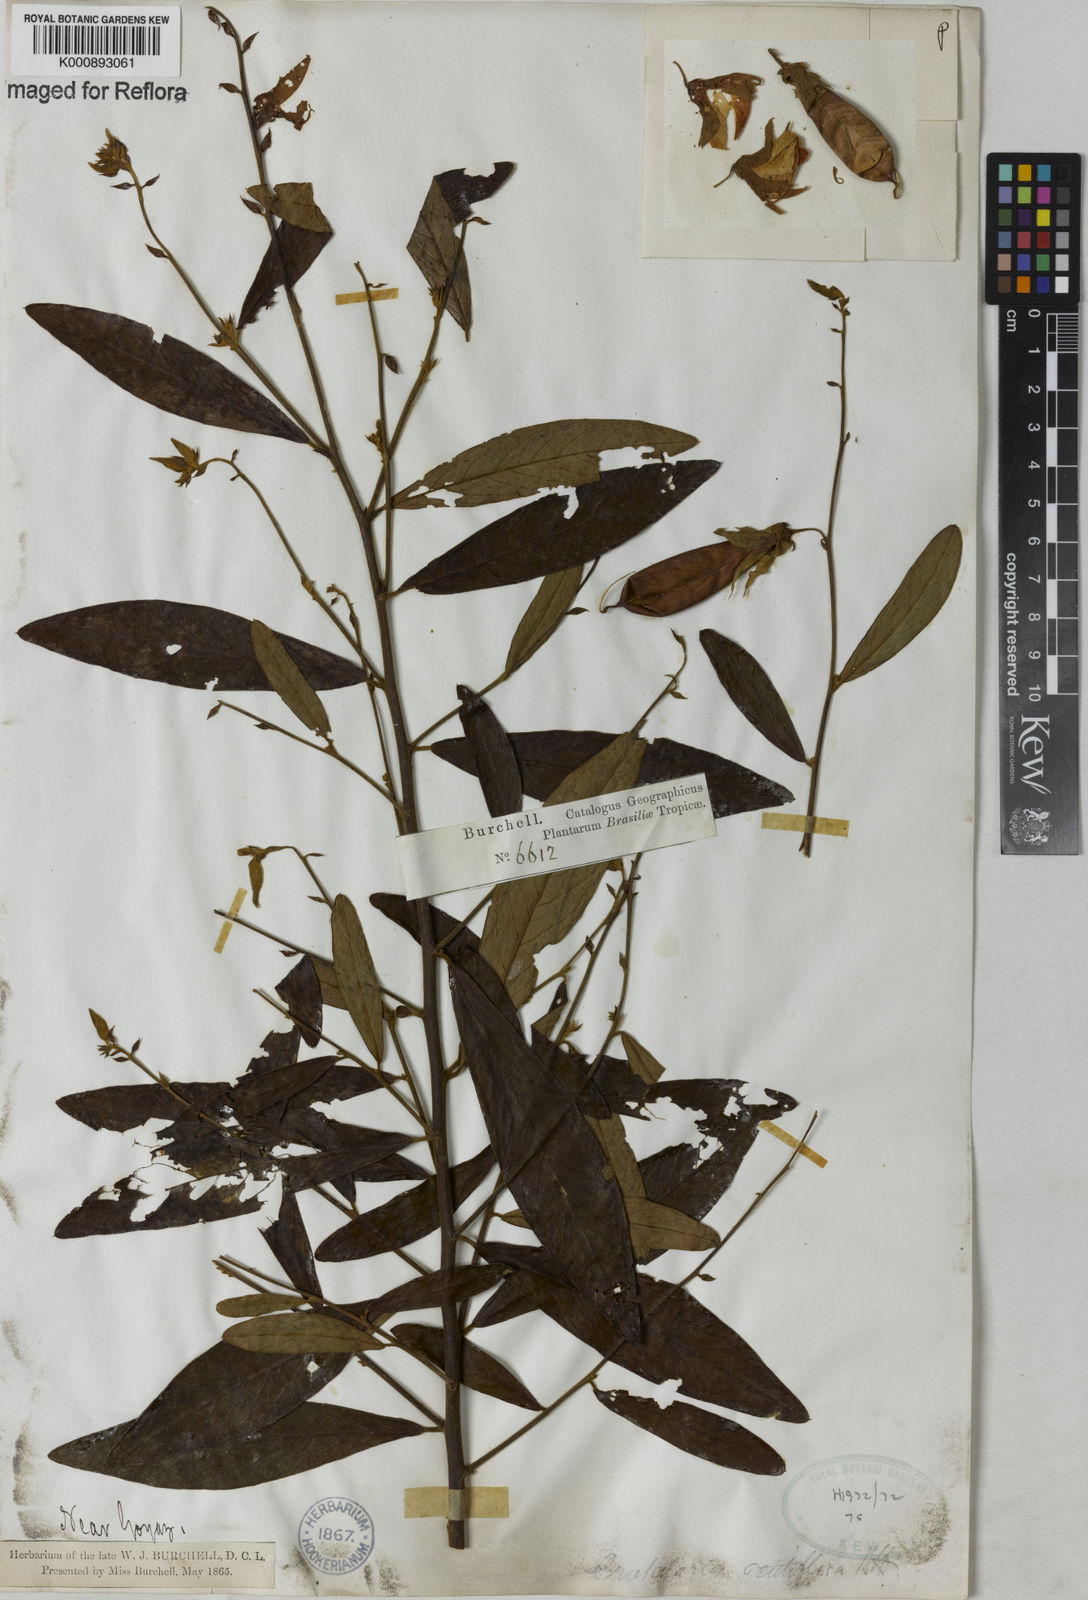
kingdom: Plantae
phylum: Tracheophyta
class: Magnoliopsida
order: Fabales
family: Fabaceae
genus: Crotalaria
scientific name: Crotalaria goiasensis
